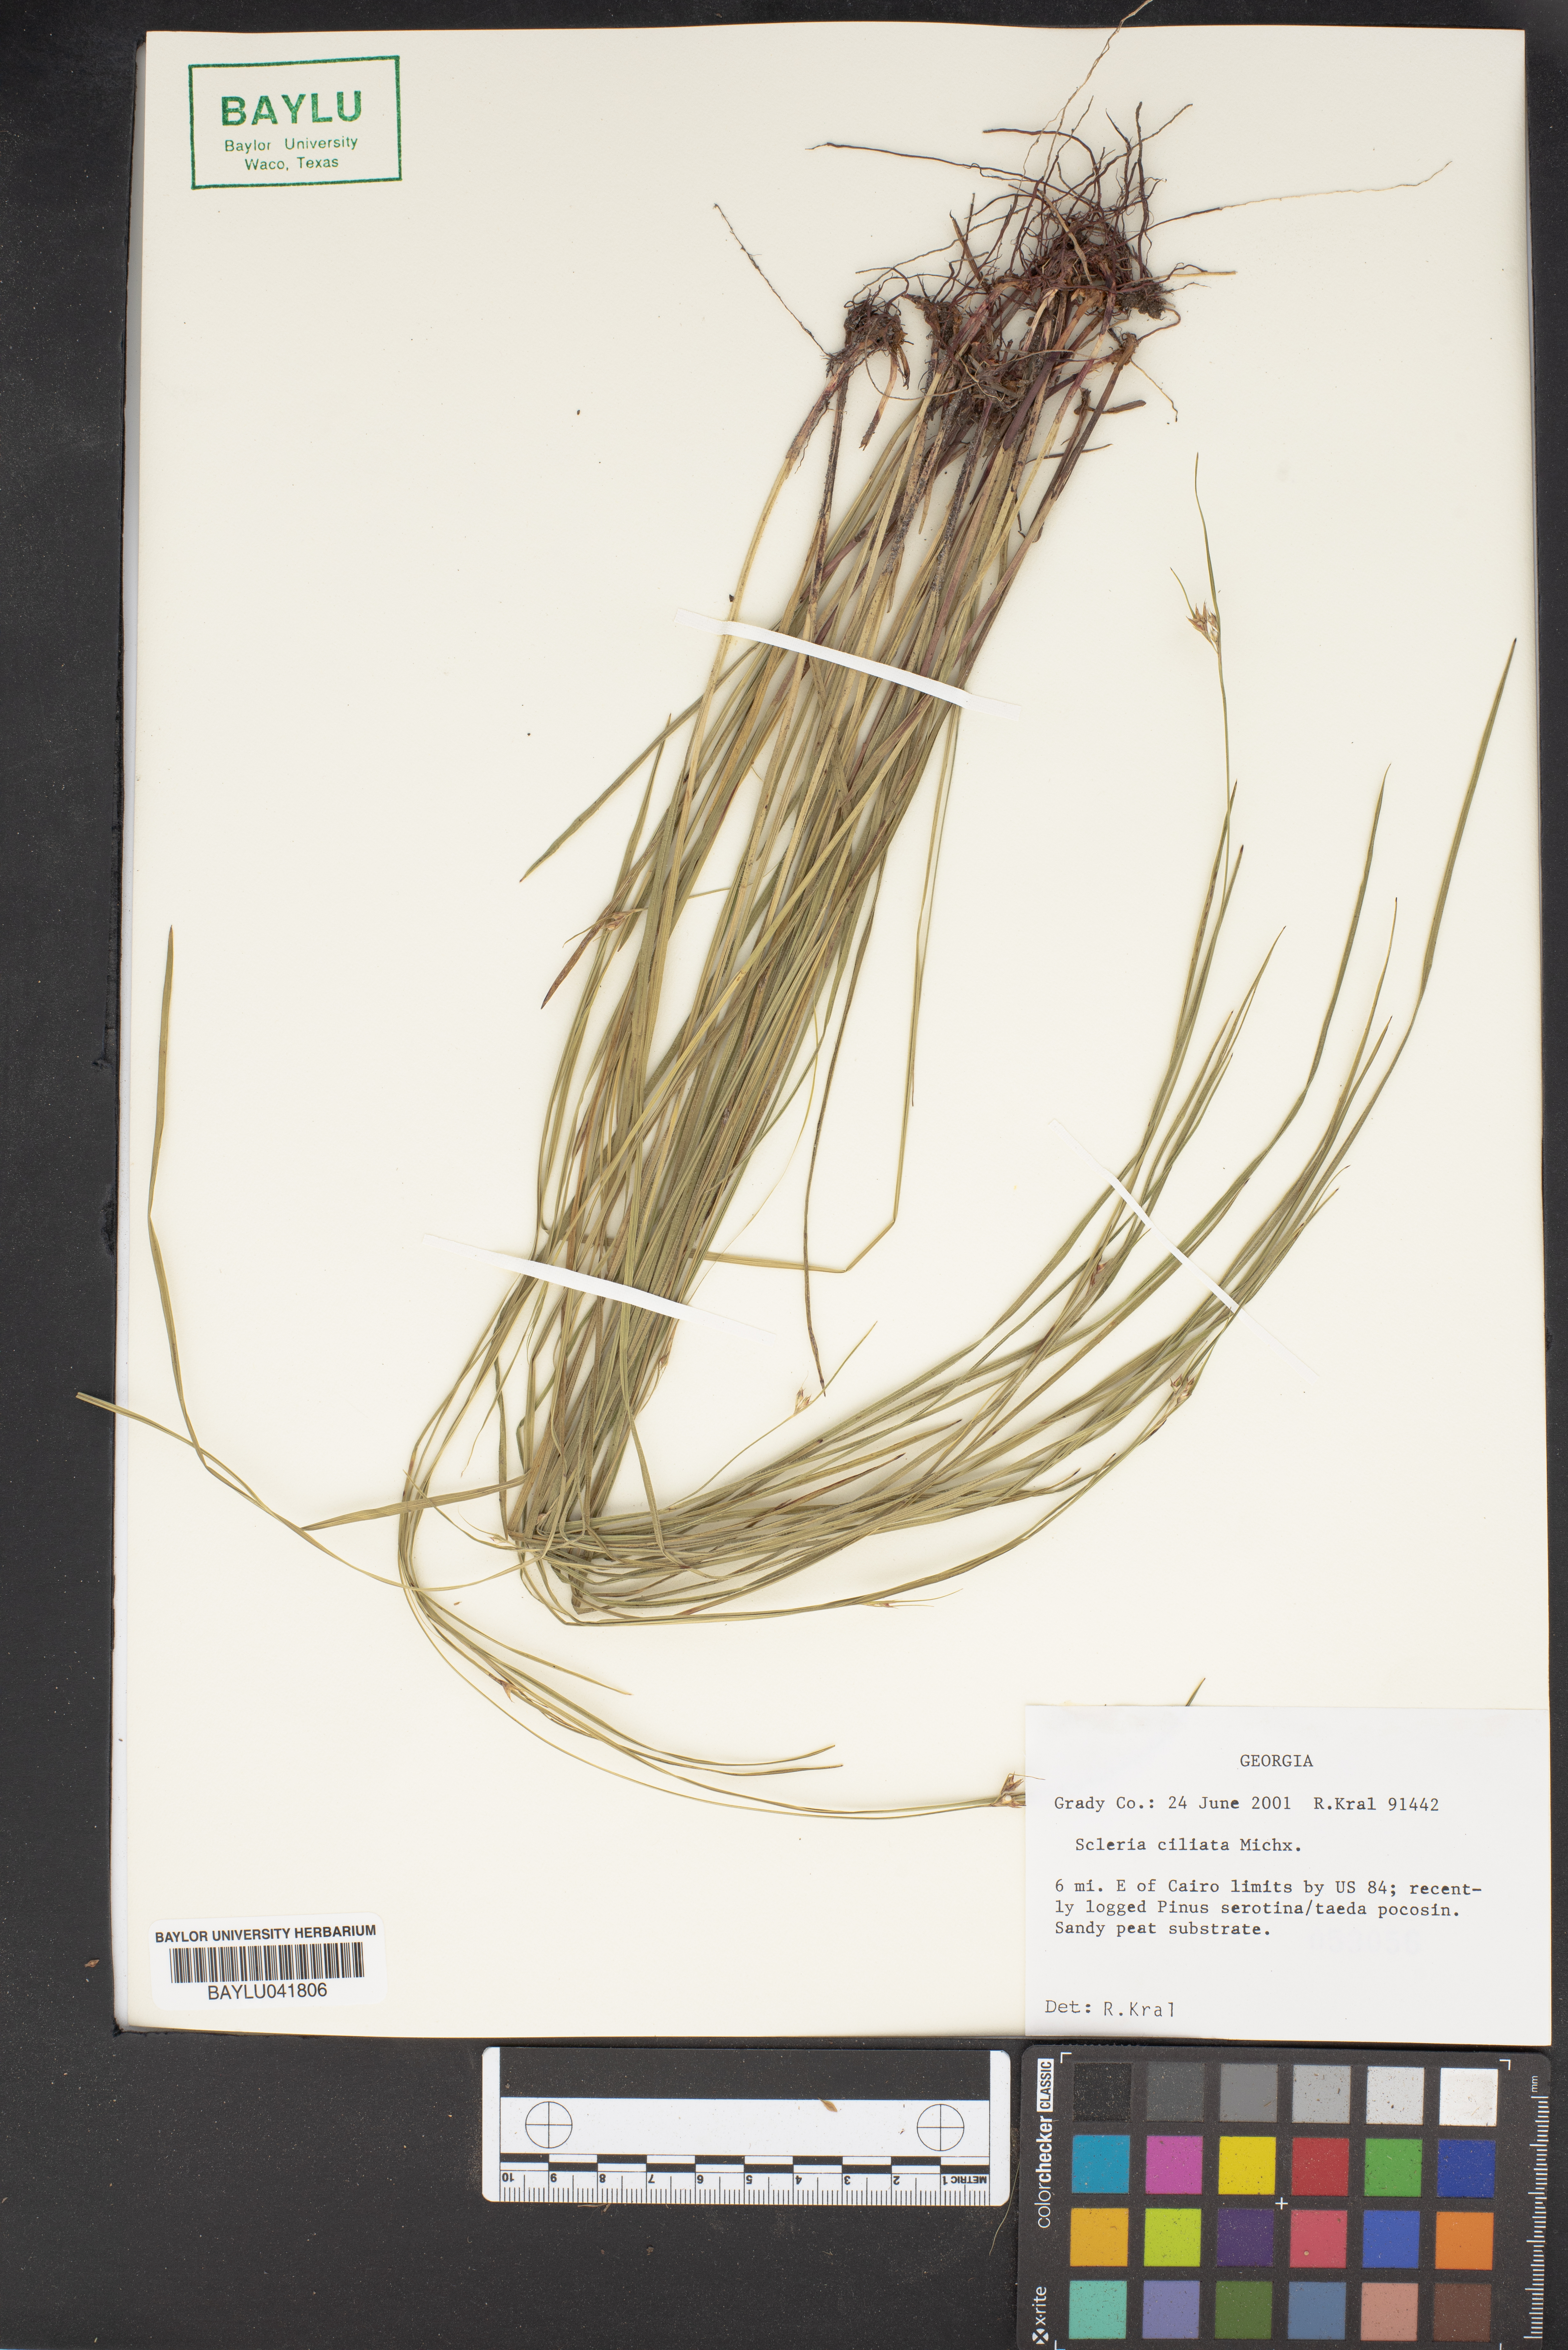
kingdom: Plantae
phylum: Tracheophyta
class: Liliopsida
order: Poales
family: Cyperaceae
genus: Scleria
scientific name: Scleria ciliata
